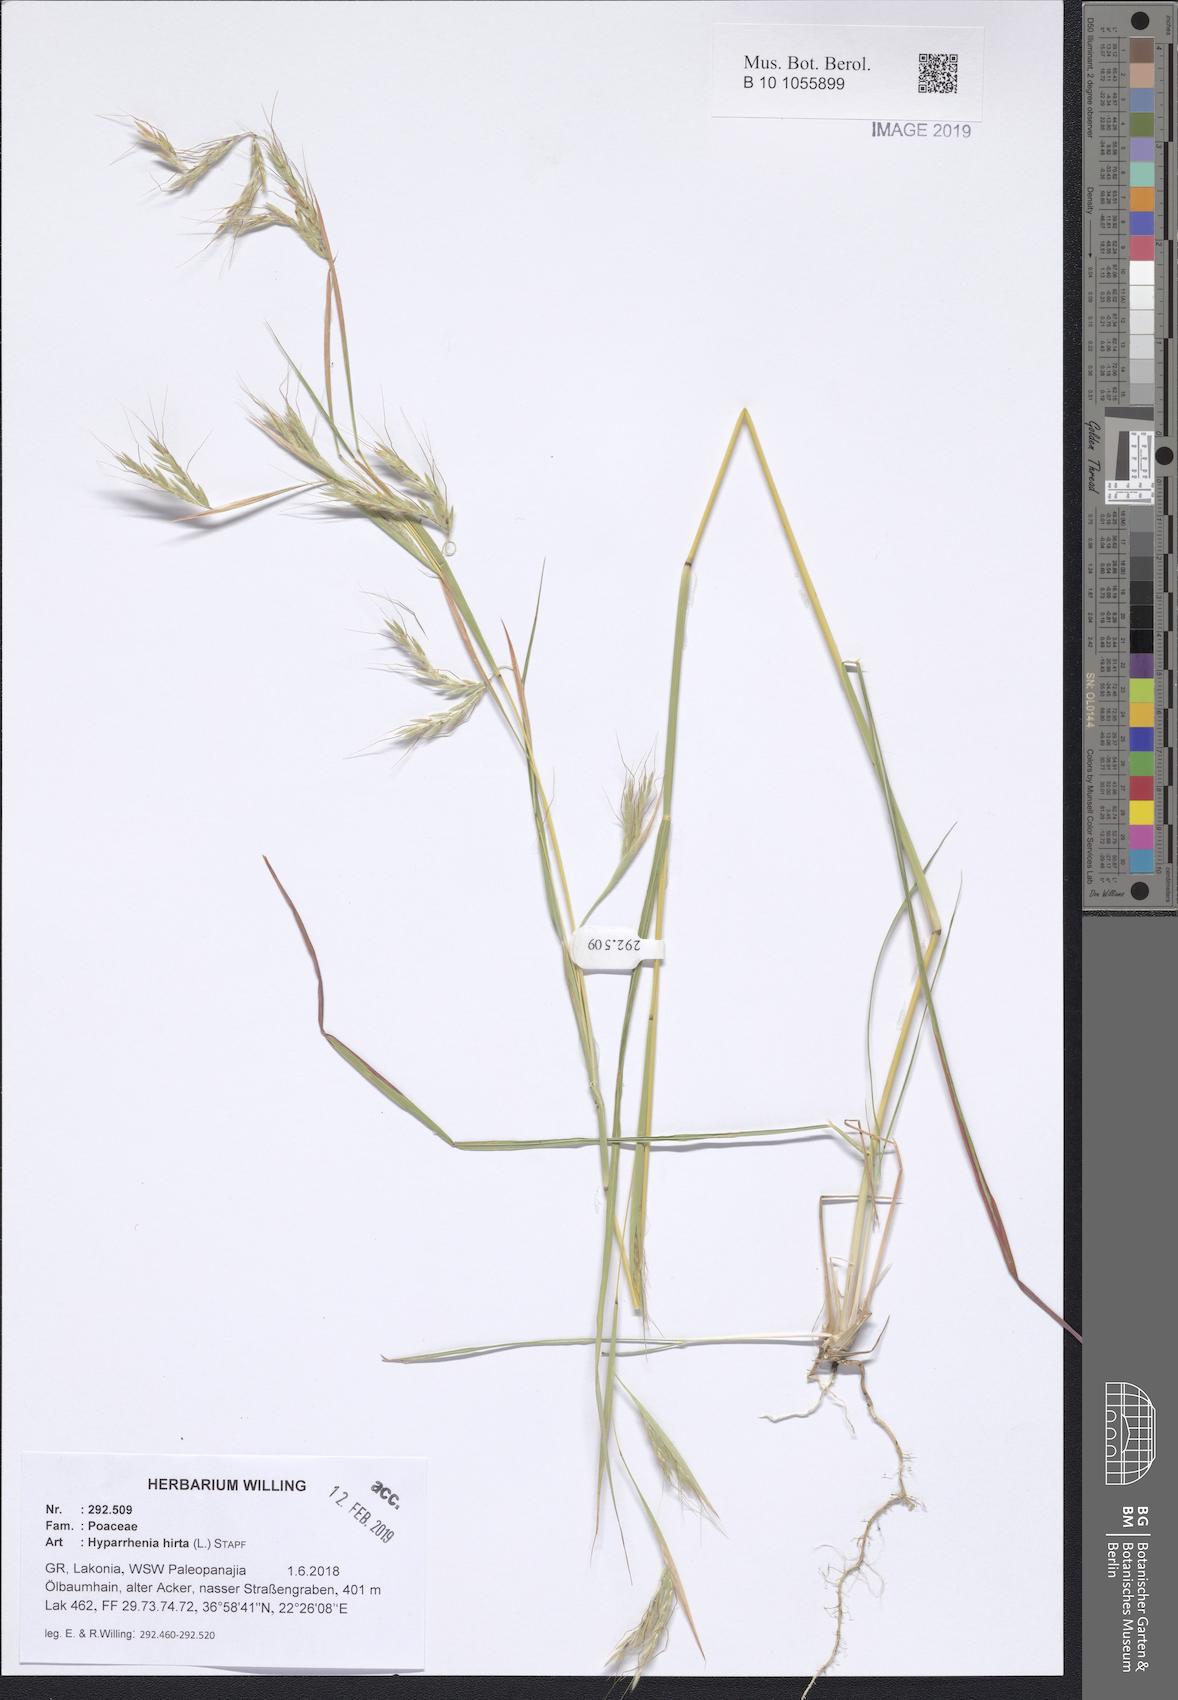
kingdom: Plantae
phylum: Tracheophyta
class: Liliopsida
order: Poales
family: Poaceae
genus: Hyparrhenia
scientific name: Hyparrhenia hirta
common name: Thatching grass
